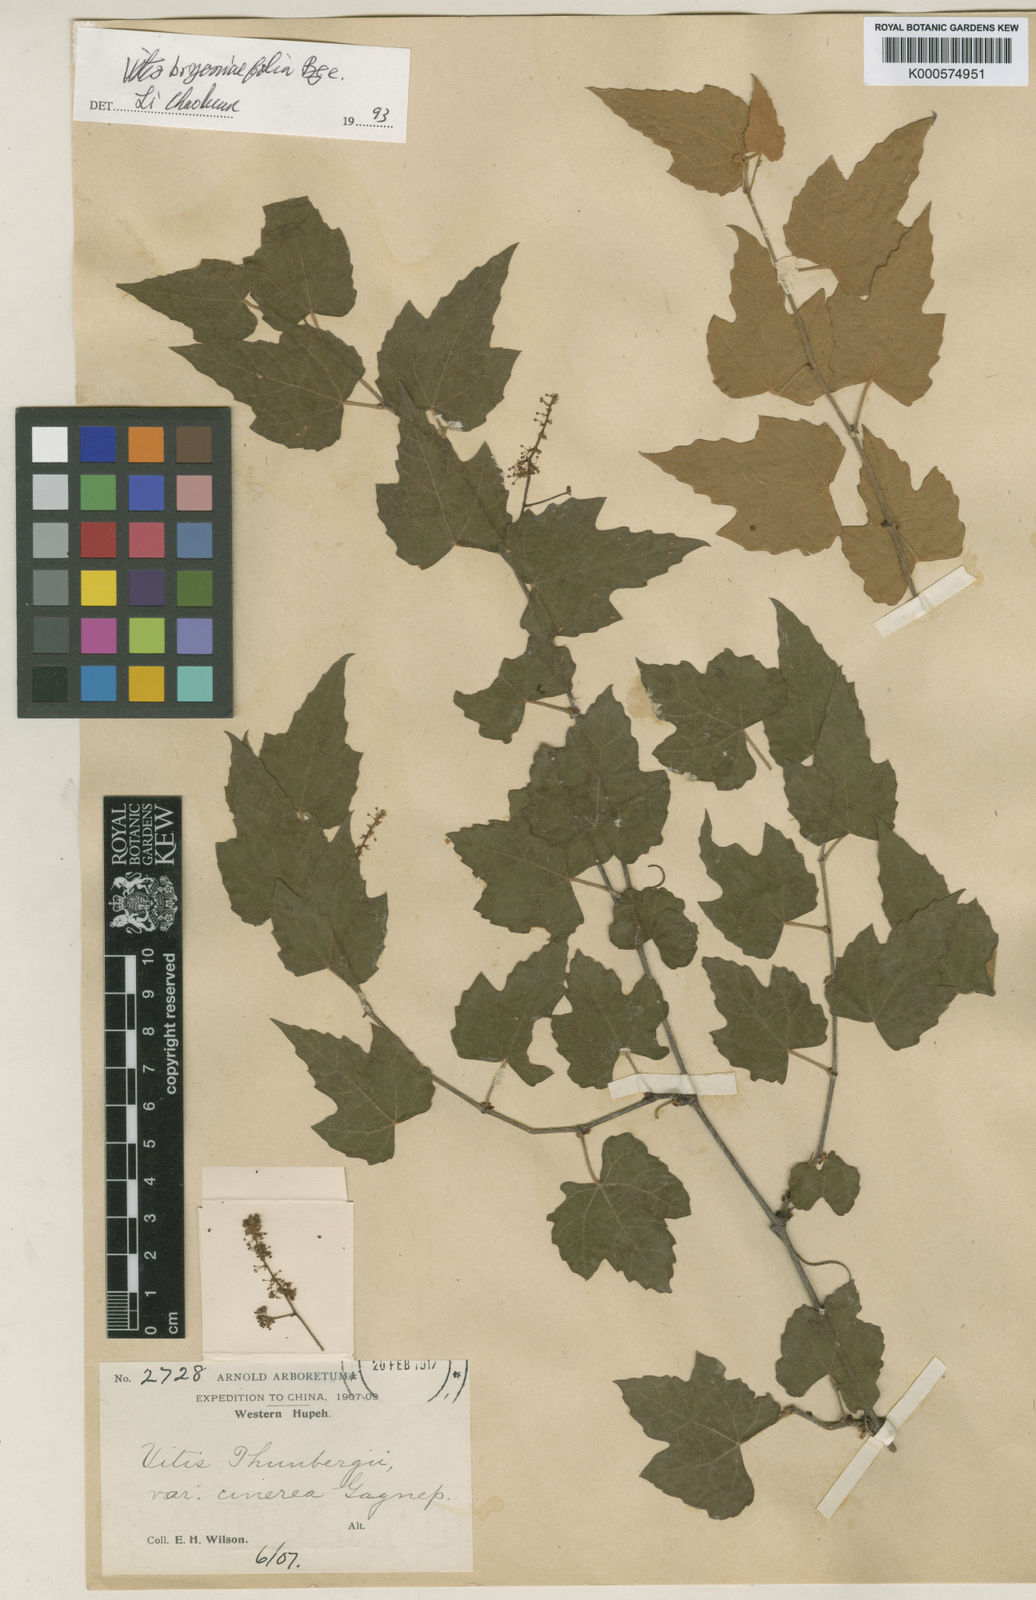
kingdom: Plantae
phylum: Tracheophyta
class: Magnoliopsida
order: Vitales
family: Vitaceae
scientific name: Vitaceae
